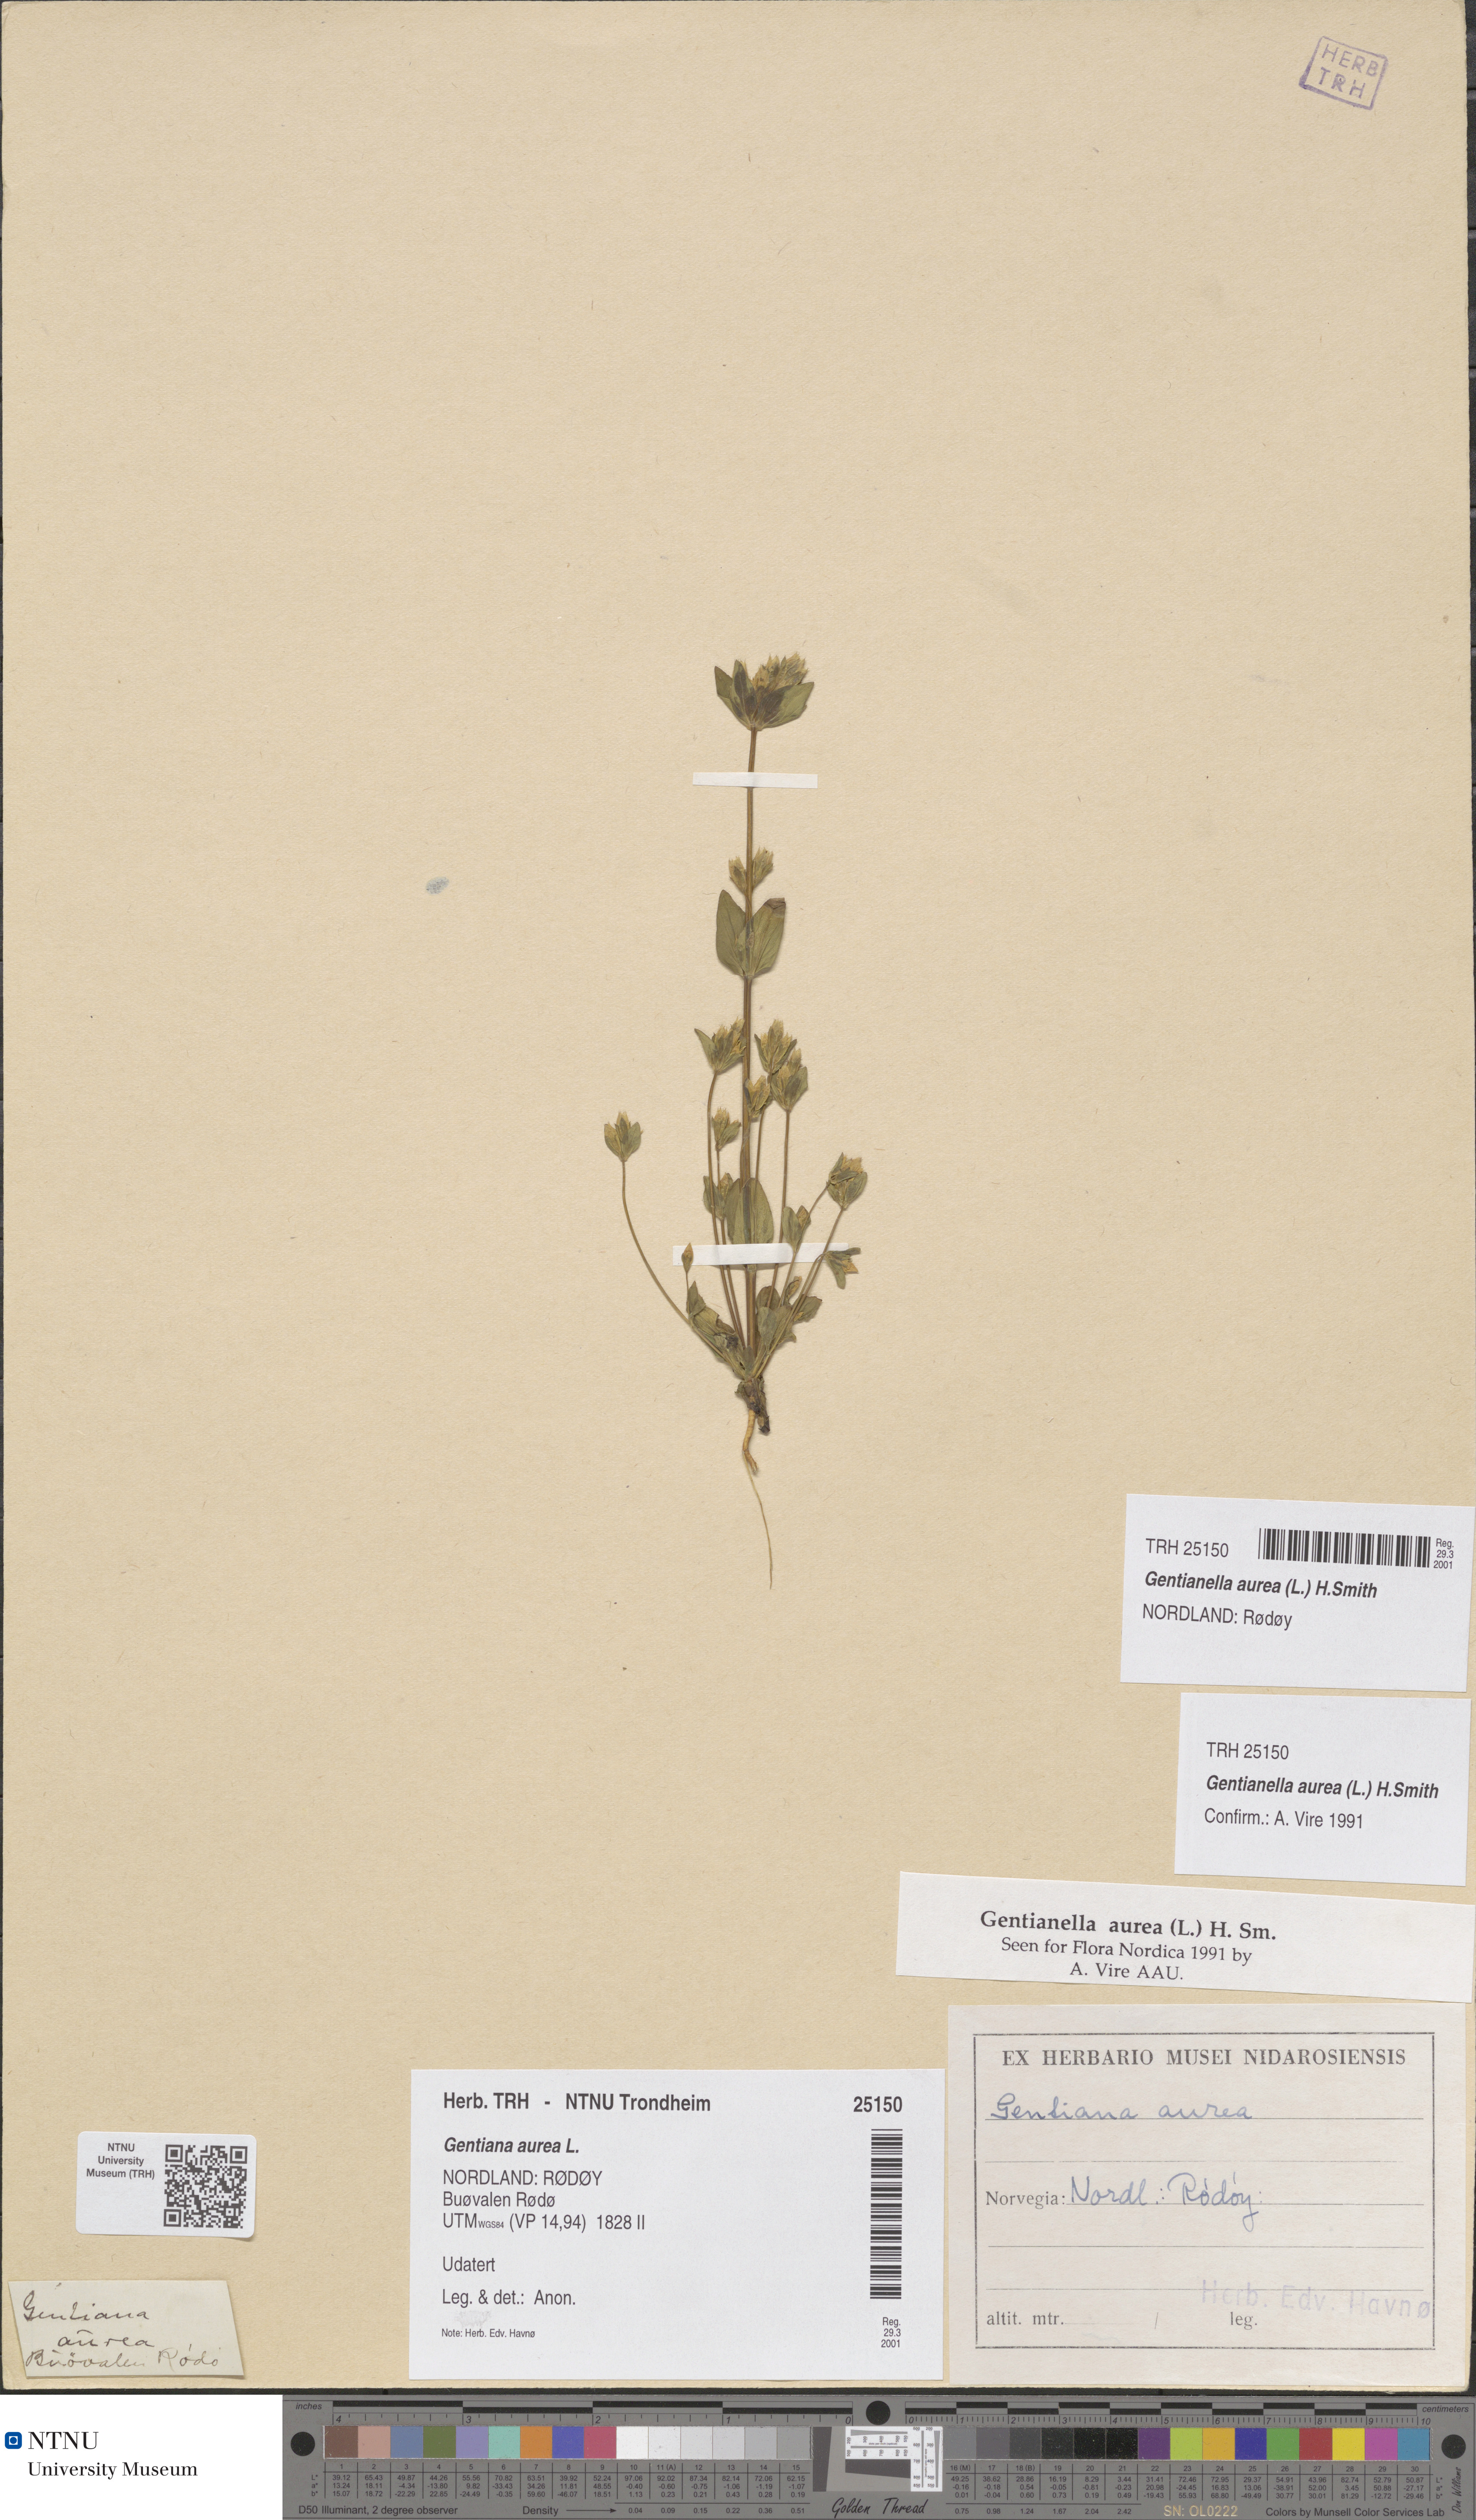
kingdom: Plantae
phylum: Tracheophyta
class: Magnoliopsida
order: Gentianales
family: Gentianaceae
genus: Gentianella
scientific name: Gentianella aurea
